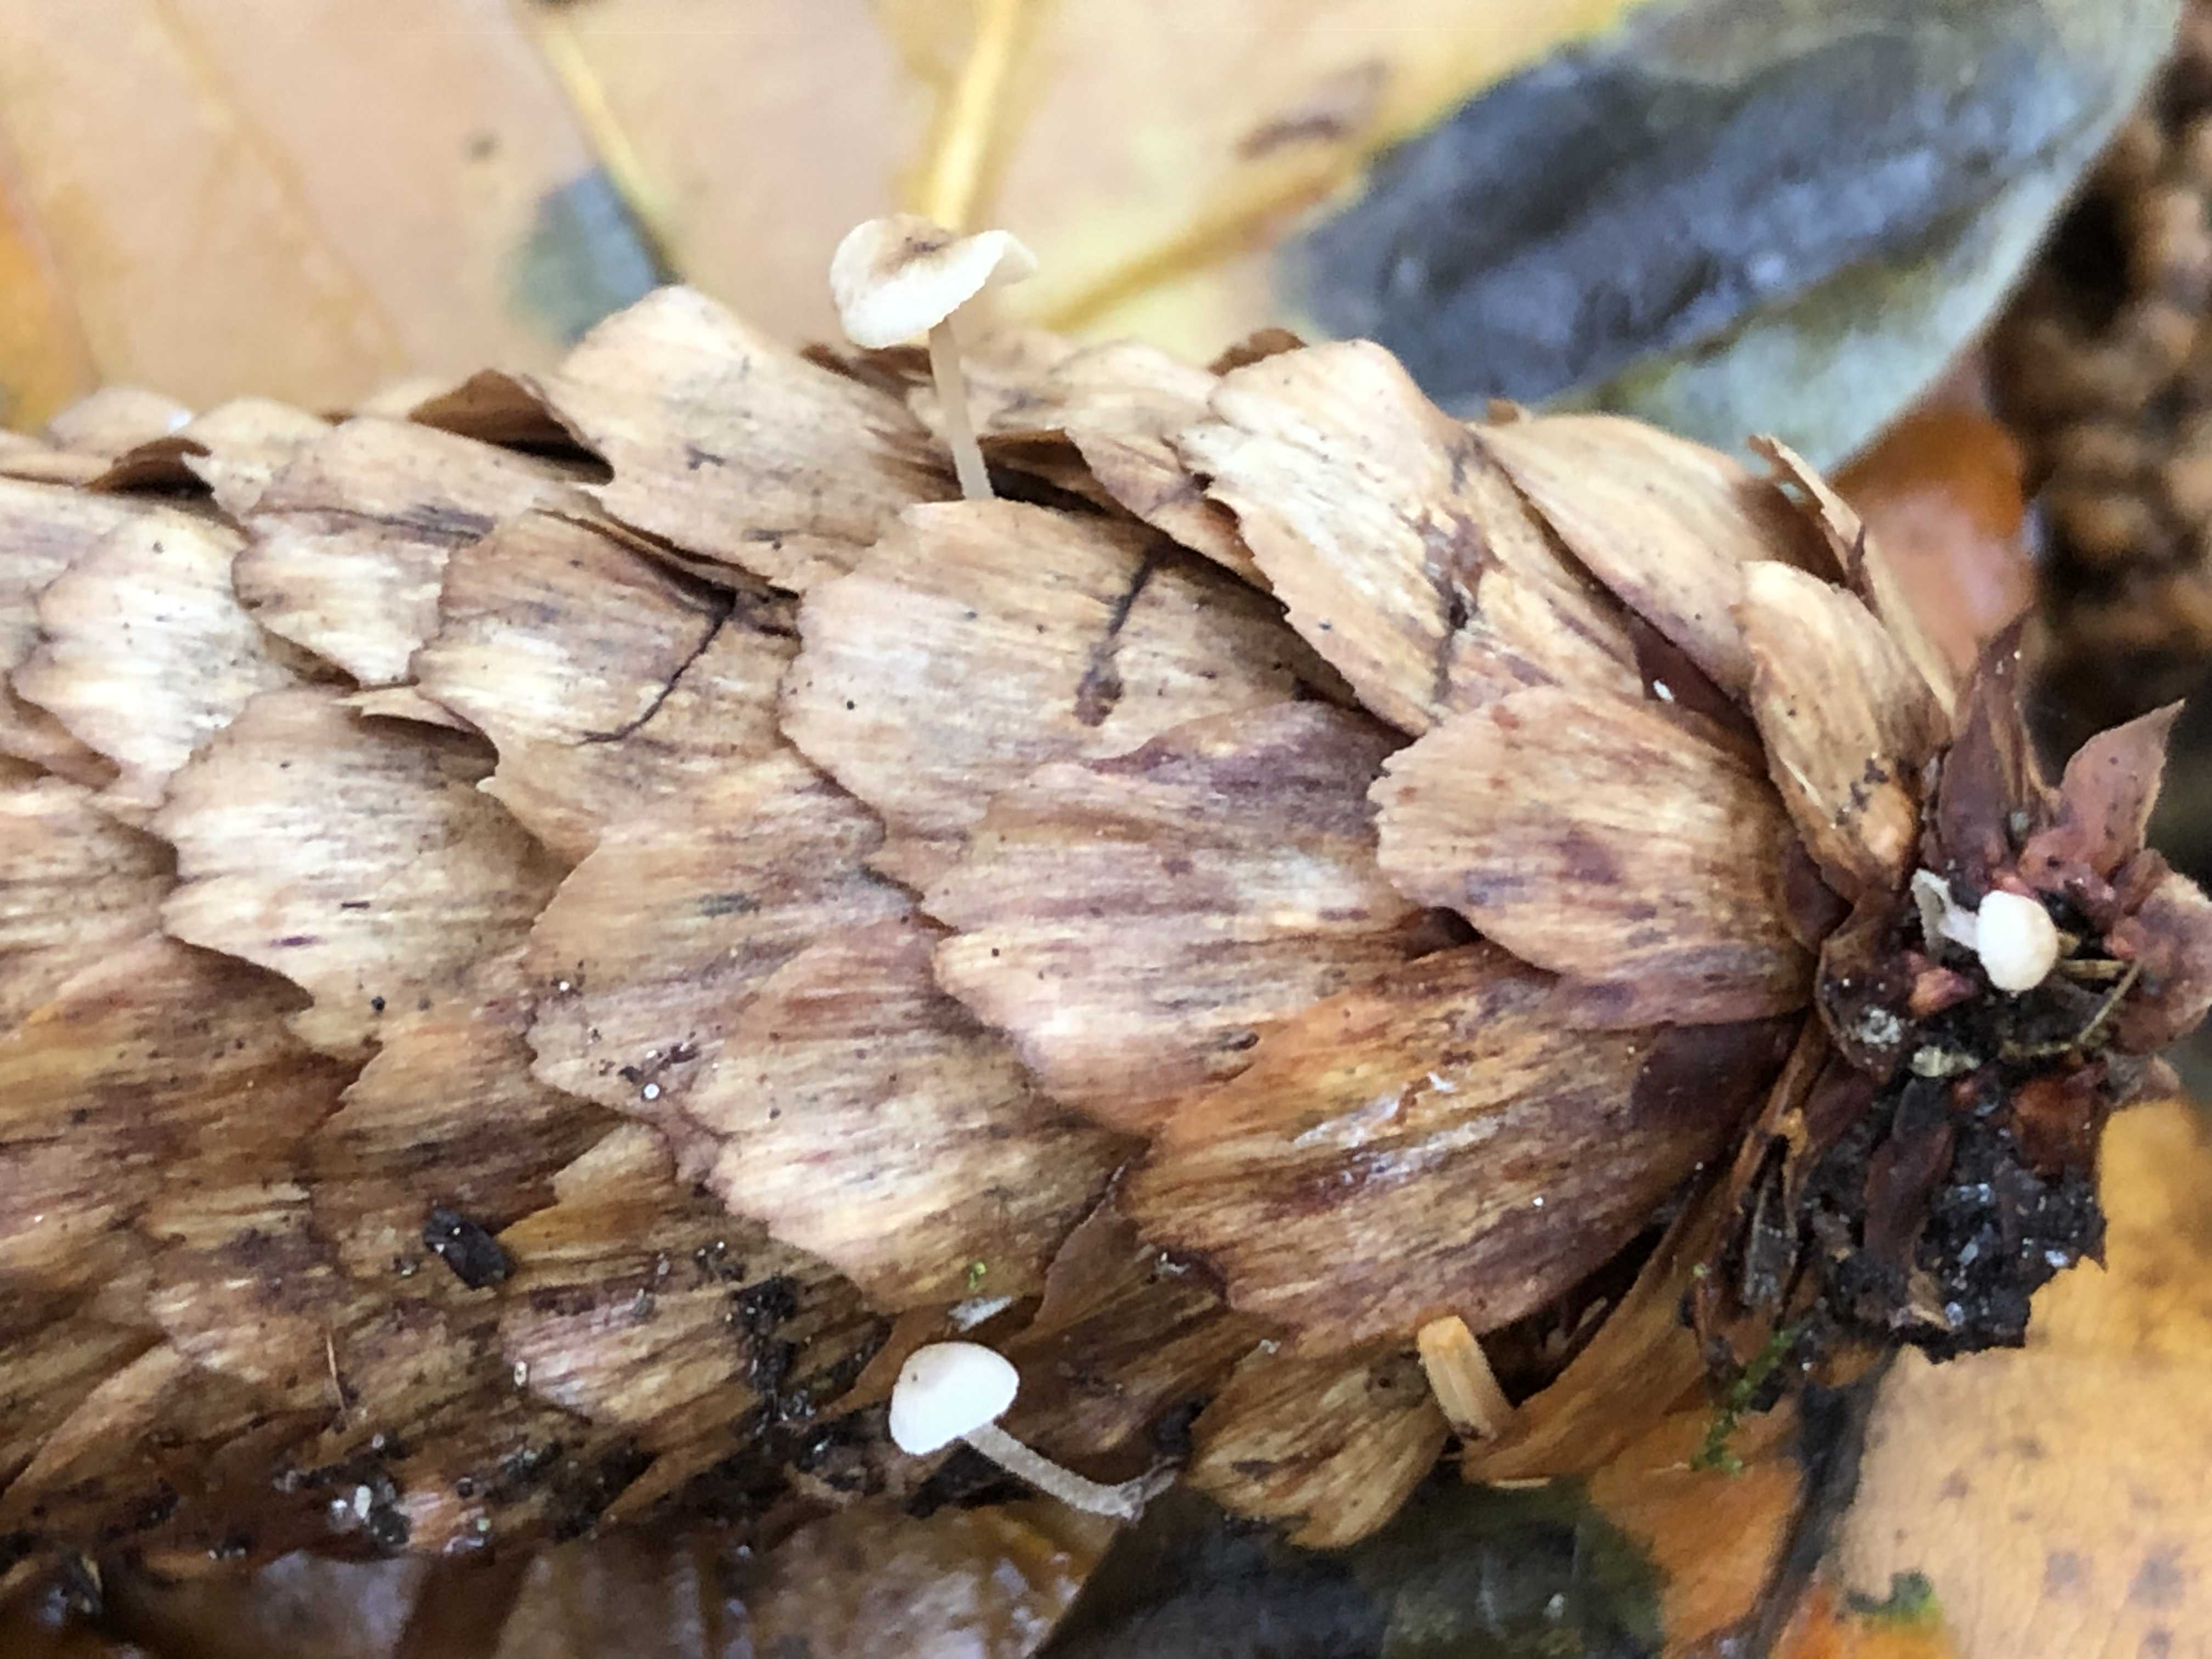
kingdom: Fungi
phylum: Basidiomycota
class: Agaricomycetes
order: Agaricales
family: Marasmiaceae
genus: Baeospora
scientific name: Baeospora myosura
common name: koglebruskhat
